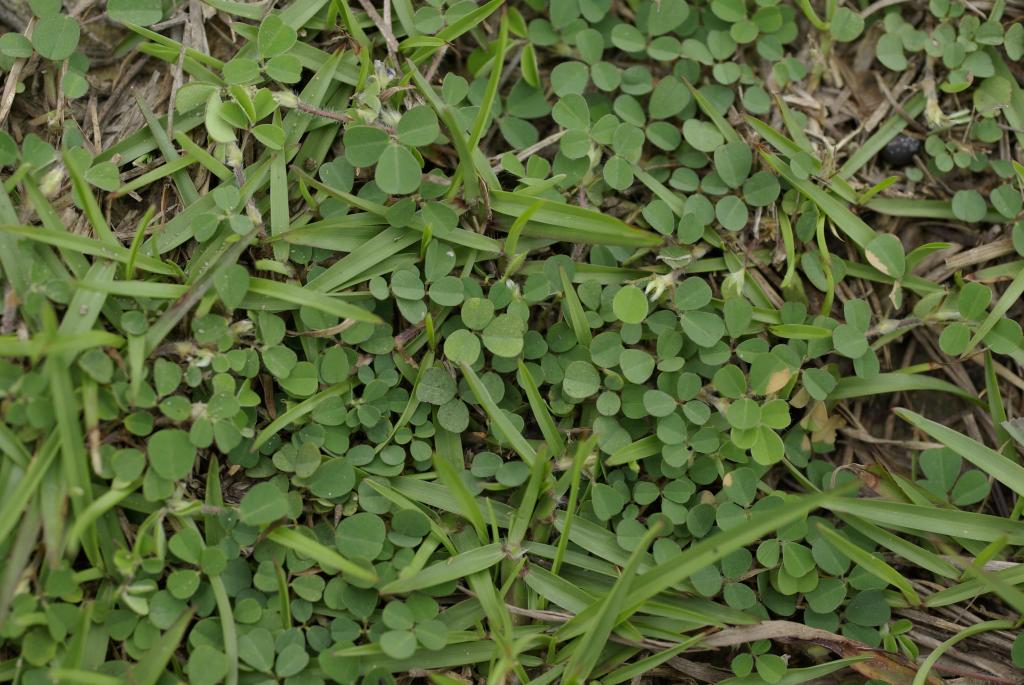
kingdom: Plantae
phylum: Tracheophyta
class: Magnoliopsida
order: Fabales
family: Fabaceae
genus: Grona
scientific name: Grona triflora
